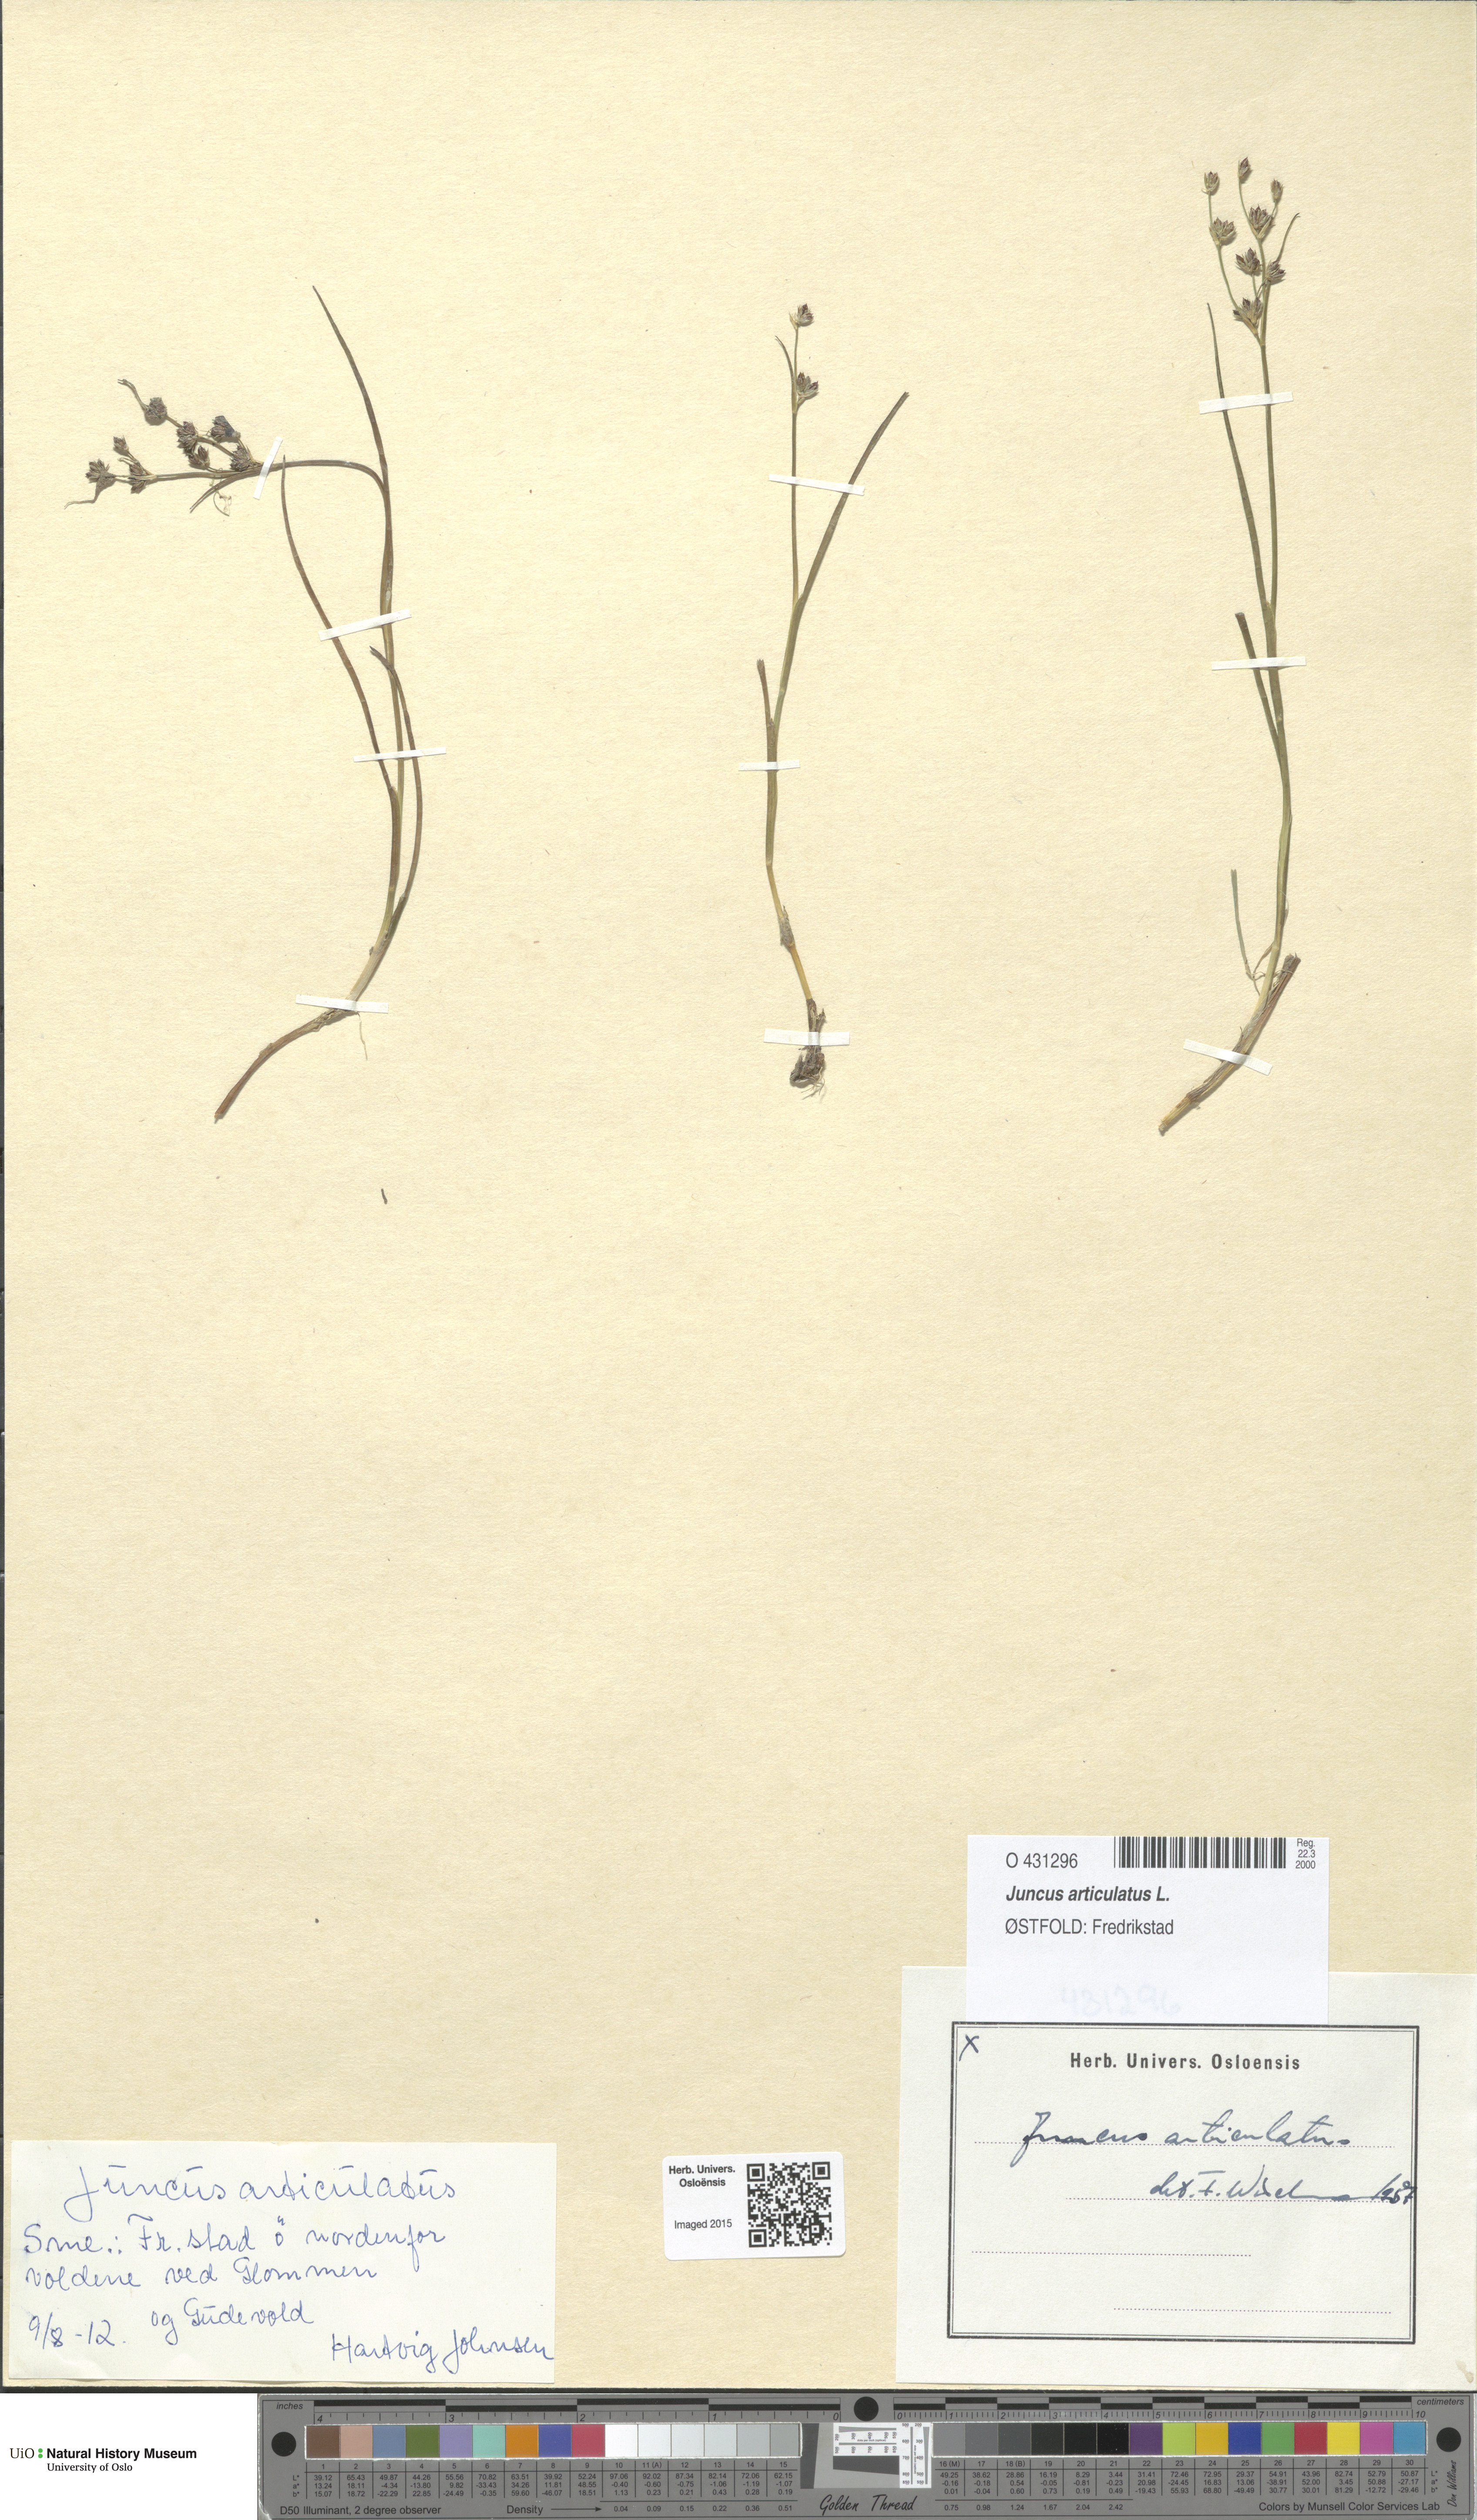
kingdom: Plantae
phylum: Tracheophyta
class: Liliopsida
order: Poales
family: Juncaceae
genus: Juncus
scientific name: Juncus articulatus
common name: Jointed rush
